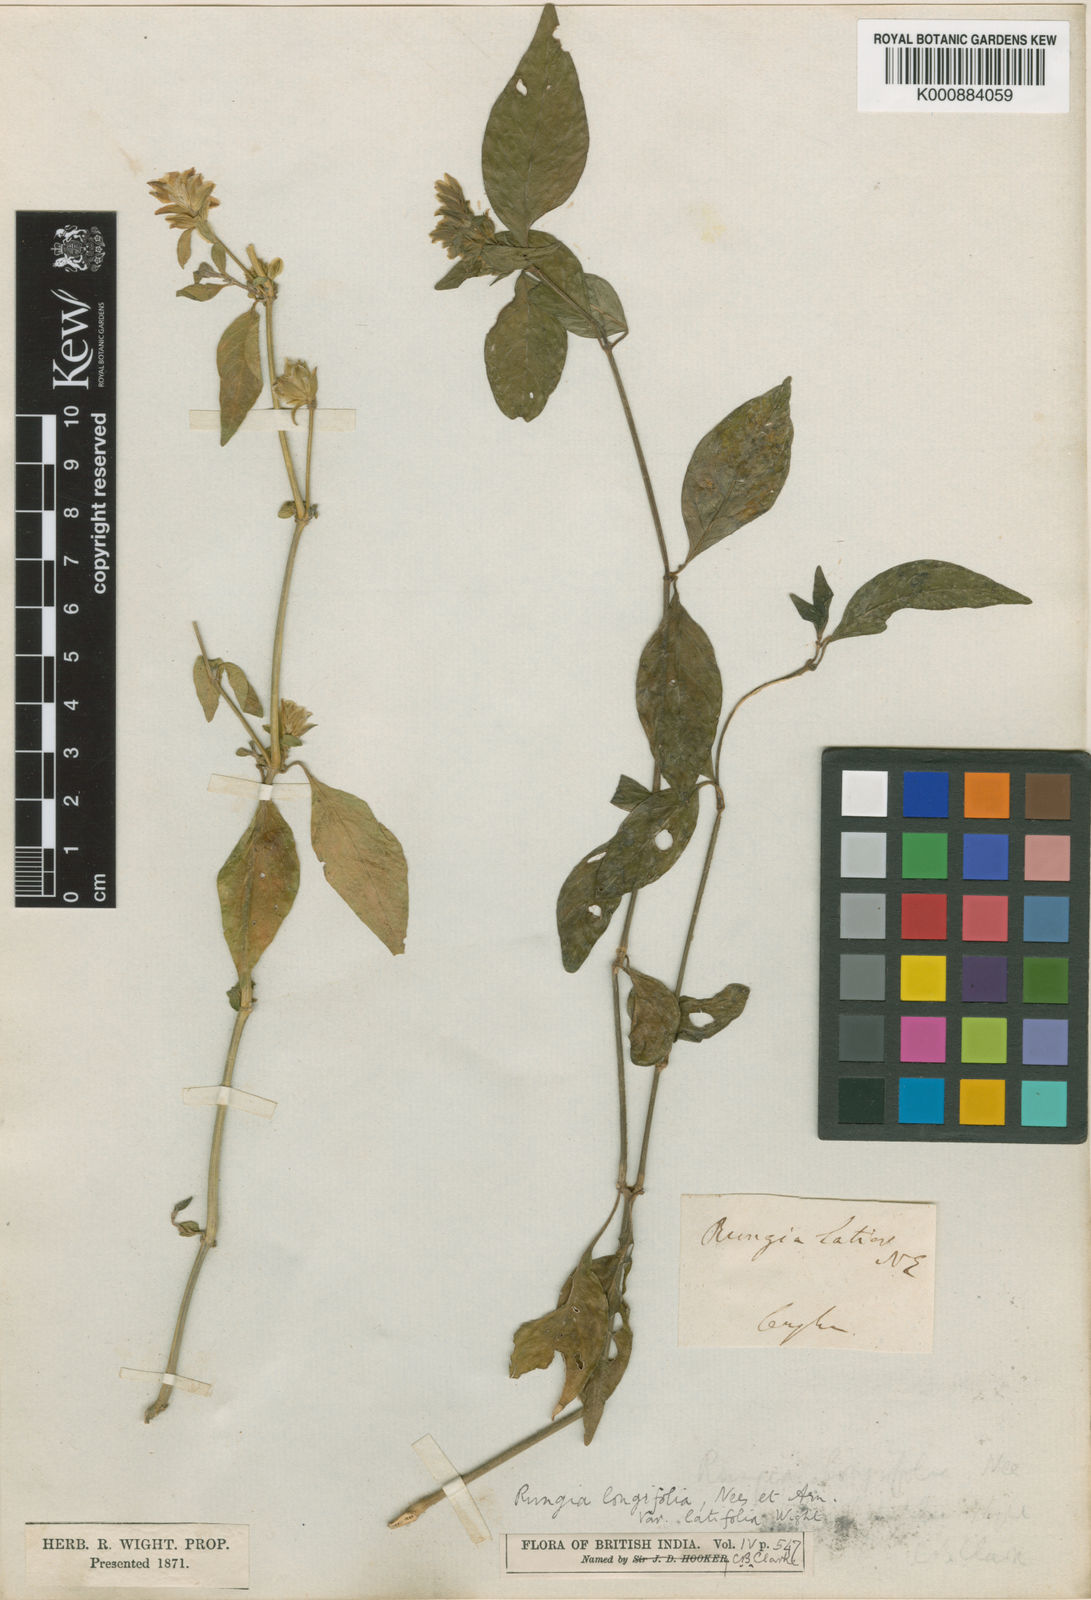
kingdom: Plantae
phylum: Tracheophyta
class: Magnoliopsida
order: Lamiales
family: Acanthaceae
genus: Justicia
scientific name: Justicia
